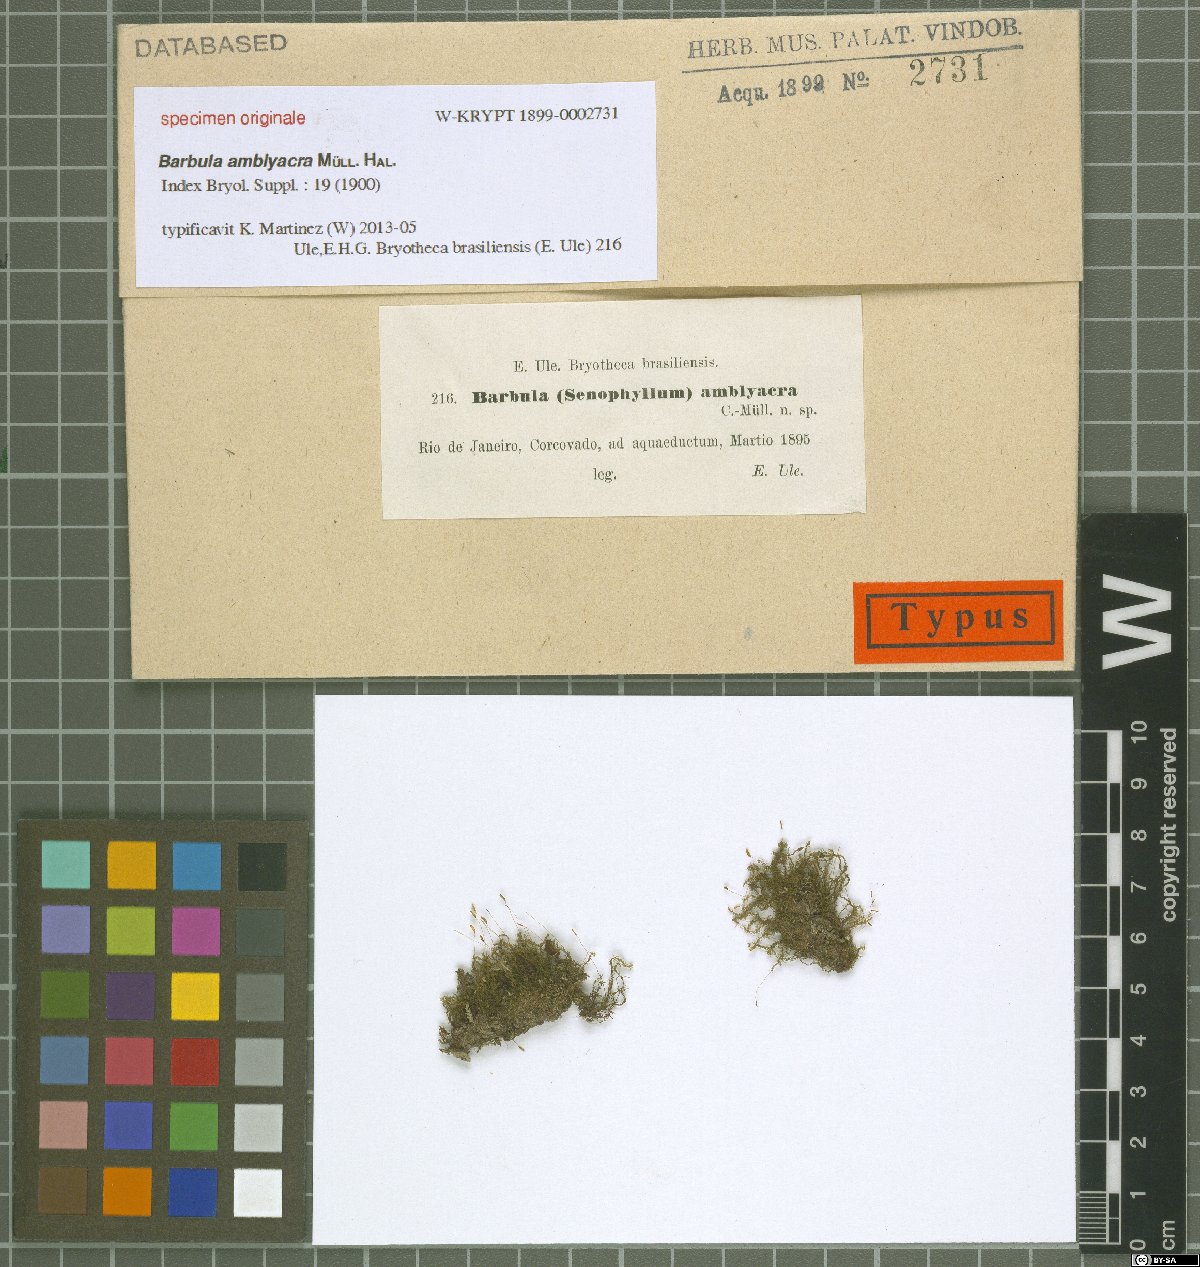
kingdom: Plantae
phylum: Bryophyta
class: Bryopsida
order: Pottiales
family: Pottiaceae
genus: Barbula
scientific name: Barbula
